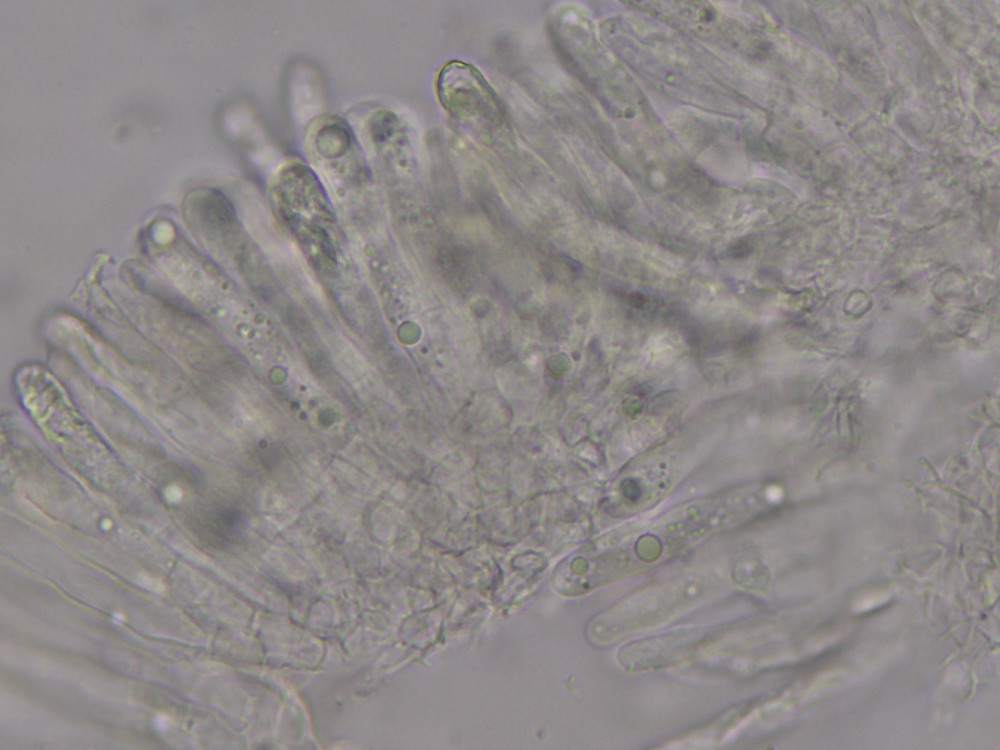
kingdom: Fungi
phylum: Basidiomycota
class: Agaricomycetes
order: Russulales
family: Russulaceae
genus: Russula
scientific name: Russula
